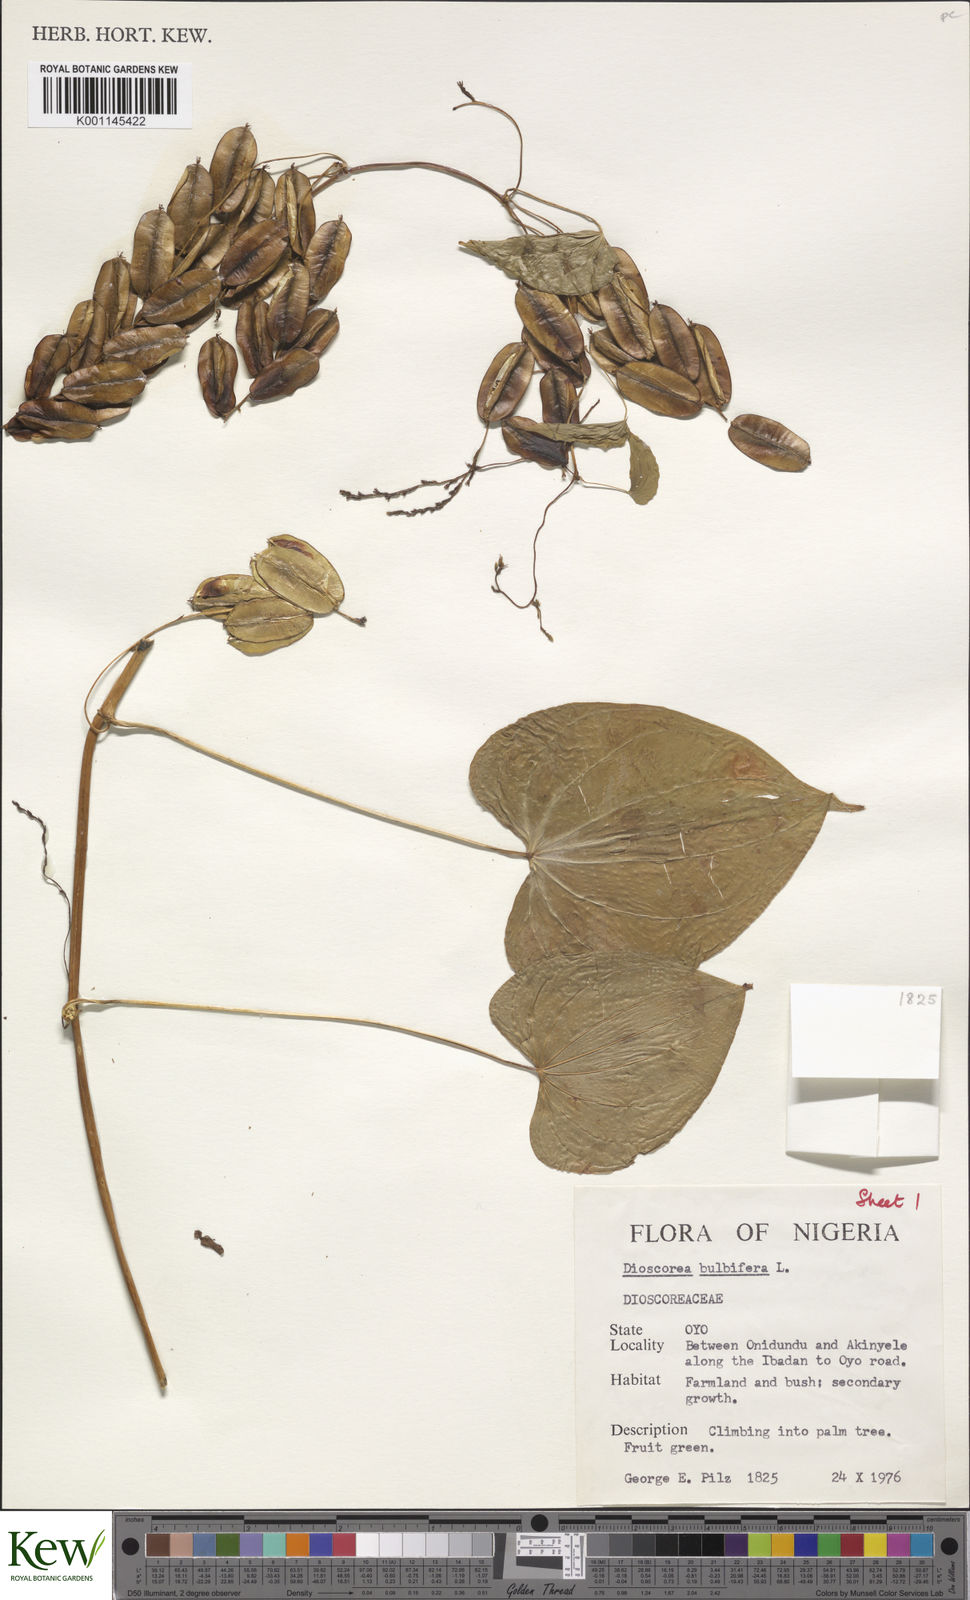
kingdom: Plantae
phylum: Tracheophyta
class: Liliopsida
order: Dioscoreales
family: Dioscoreaceae
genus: Dioscorea
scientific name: Dioscorea bulbifera
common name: Air yam
